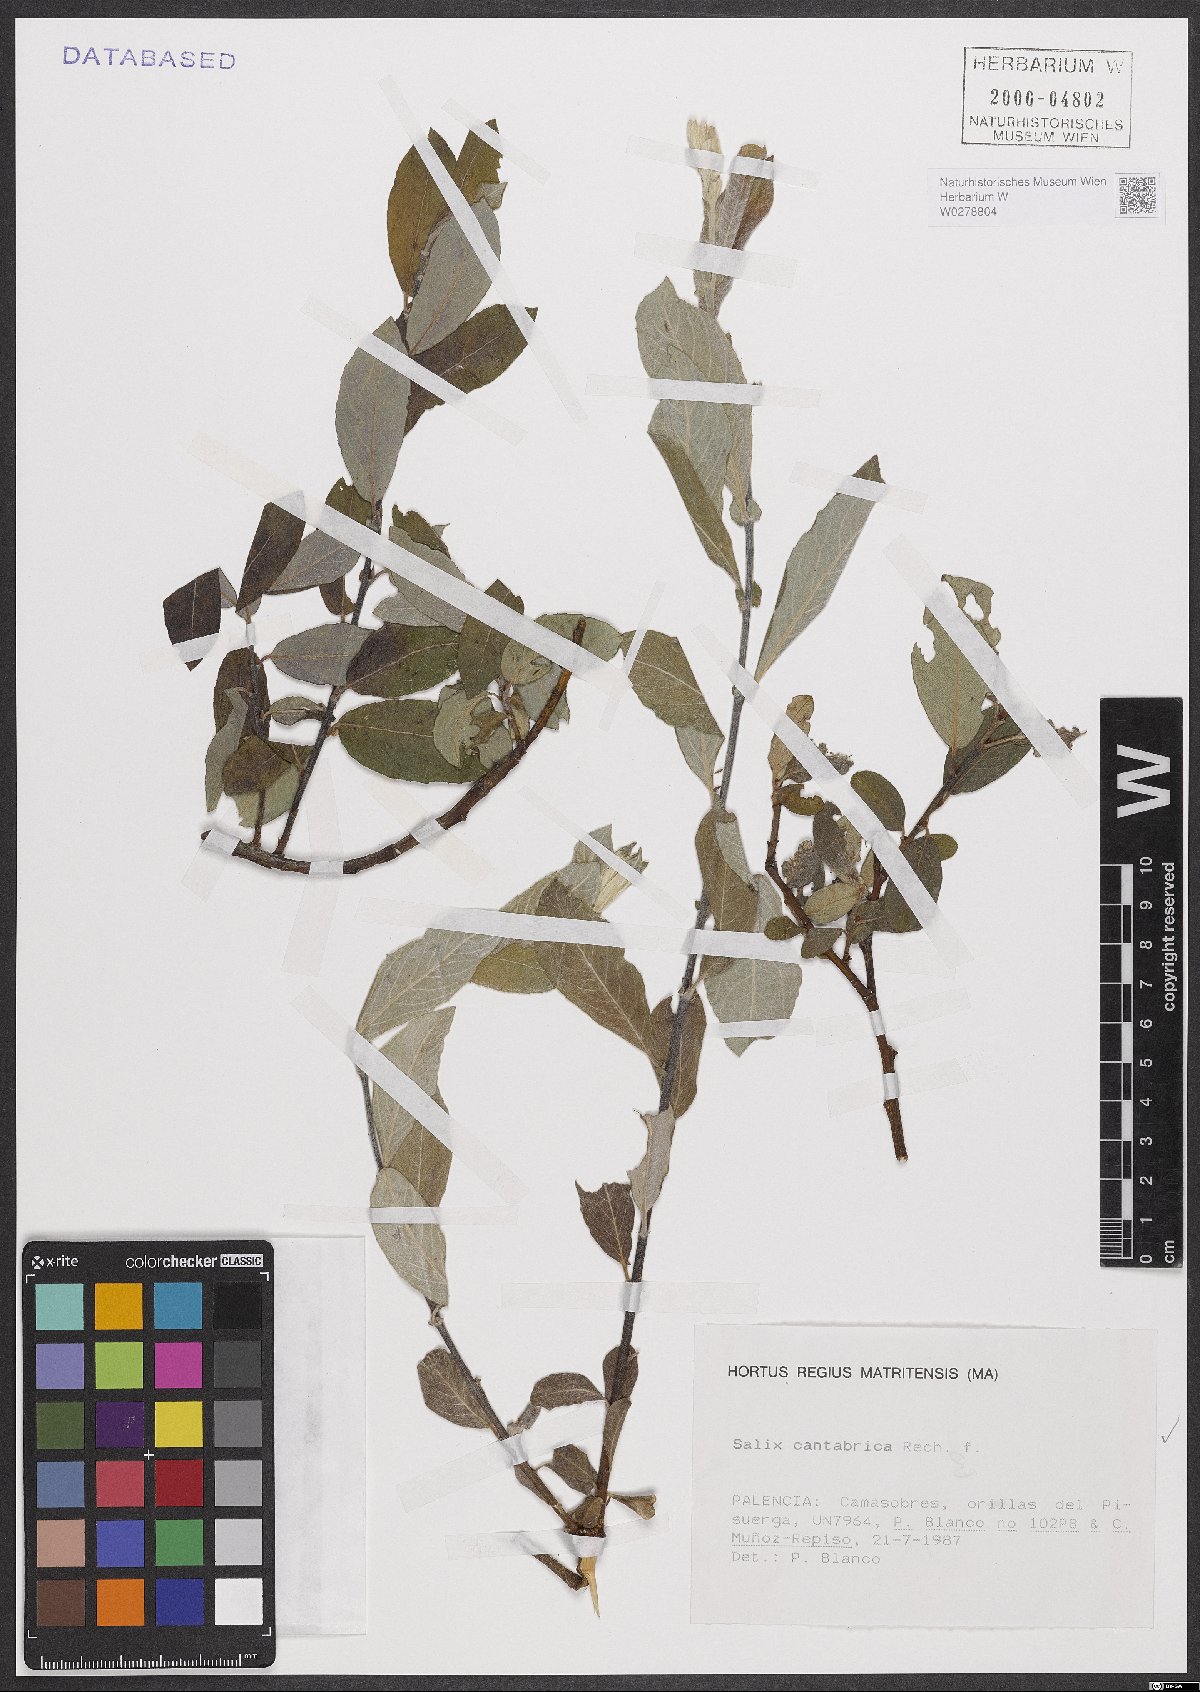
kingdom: Plantae
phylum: Tracheophyta
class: Magnoliopsida
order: Malpighiales
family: Salicaceae
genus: Salix
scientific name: Salix cantabrica
